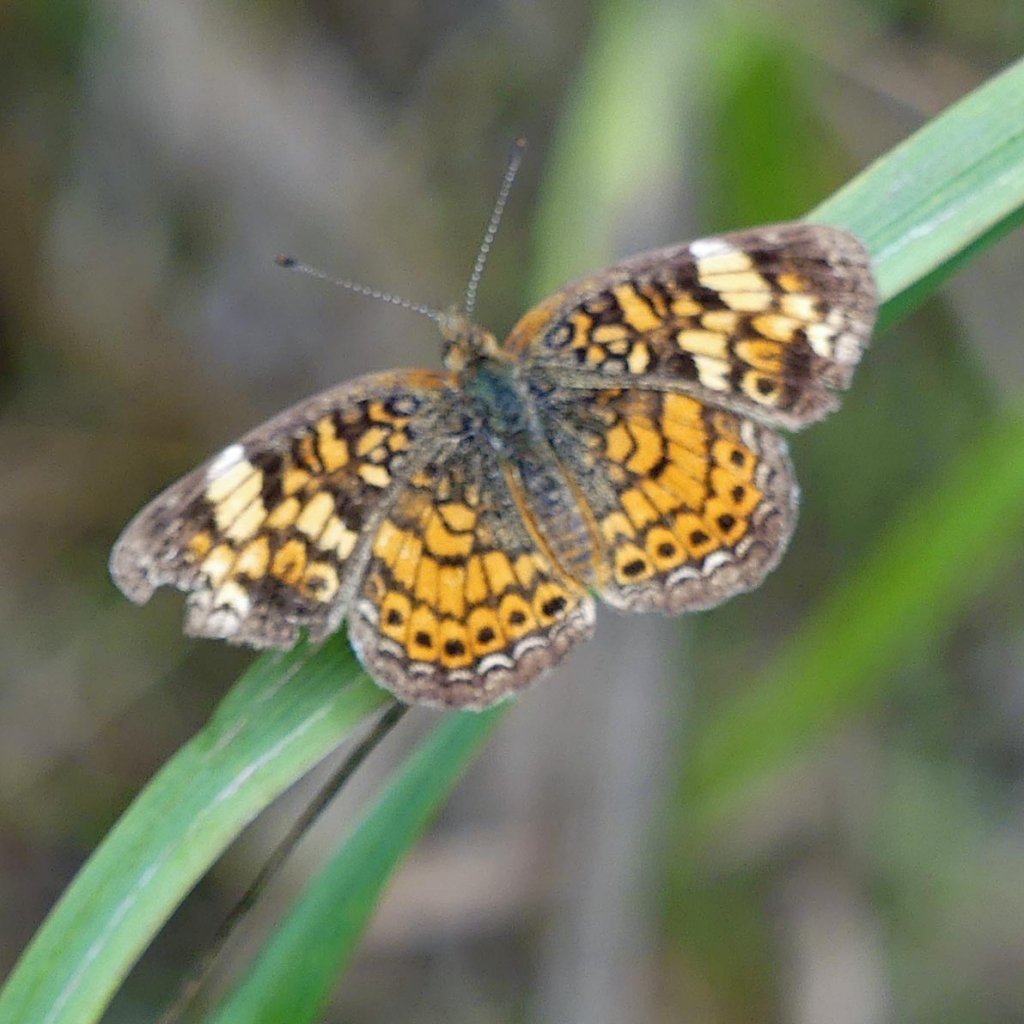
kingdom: Animalia
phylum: Arthropoda
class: Insecta
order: Lepidoptera
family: Nymphalidae
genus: Phyciodes
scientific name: Phyciodes tharos
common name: Pearl Crescent
